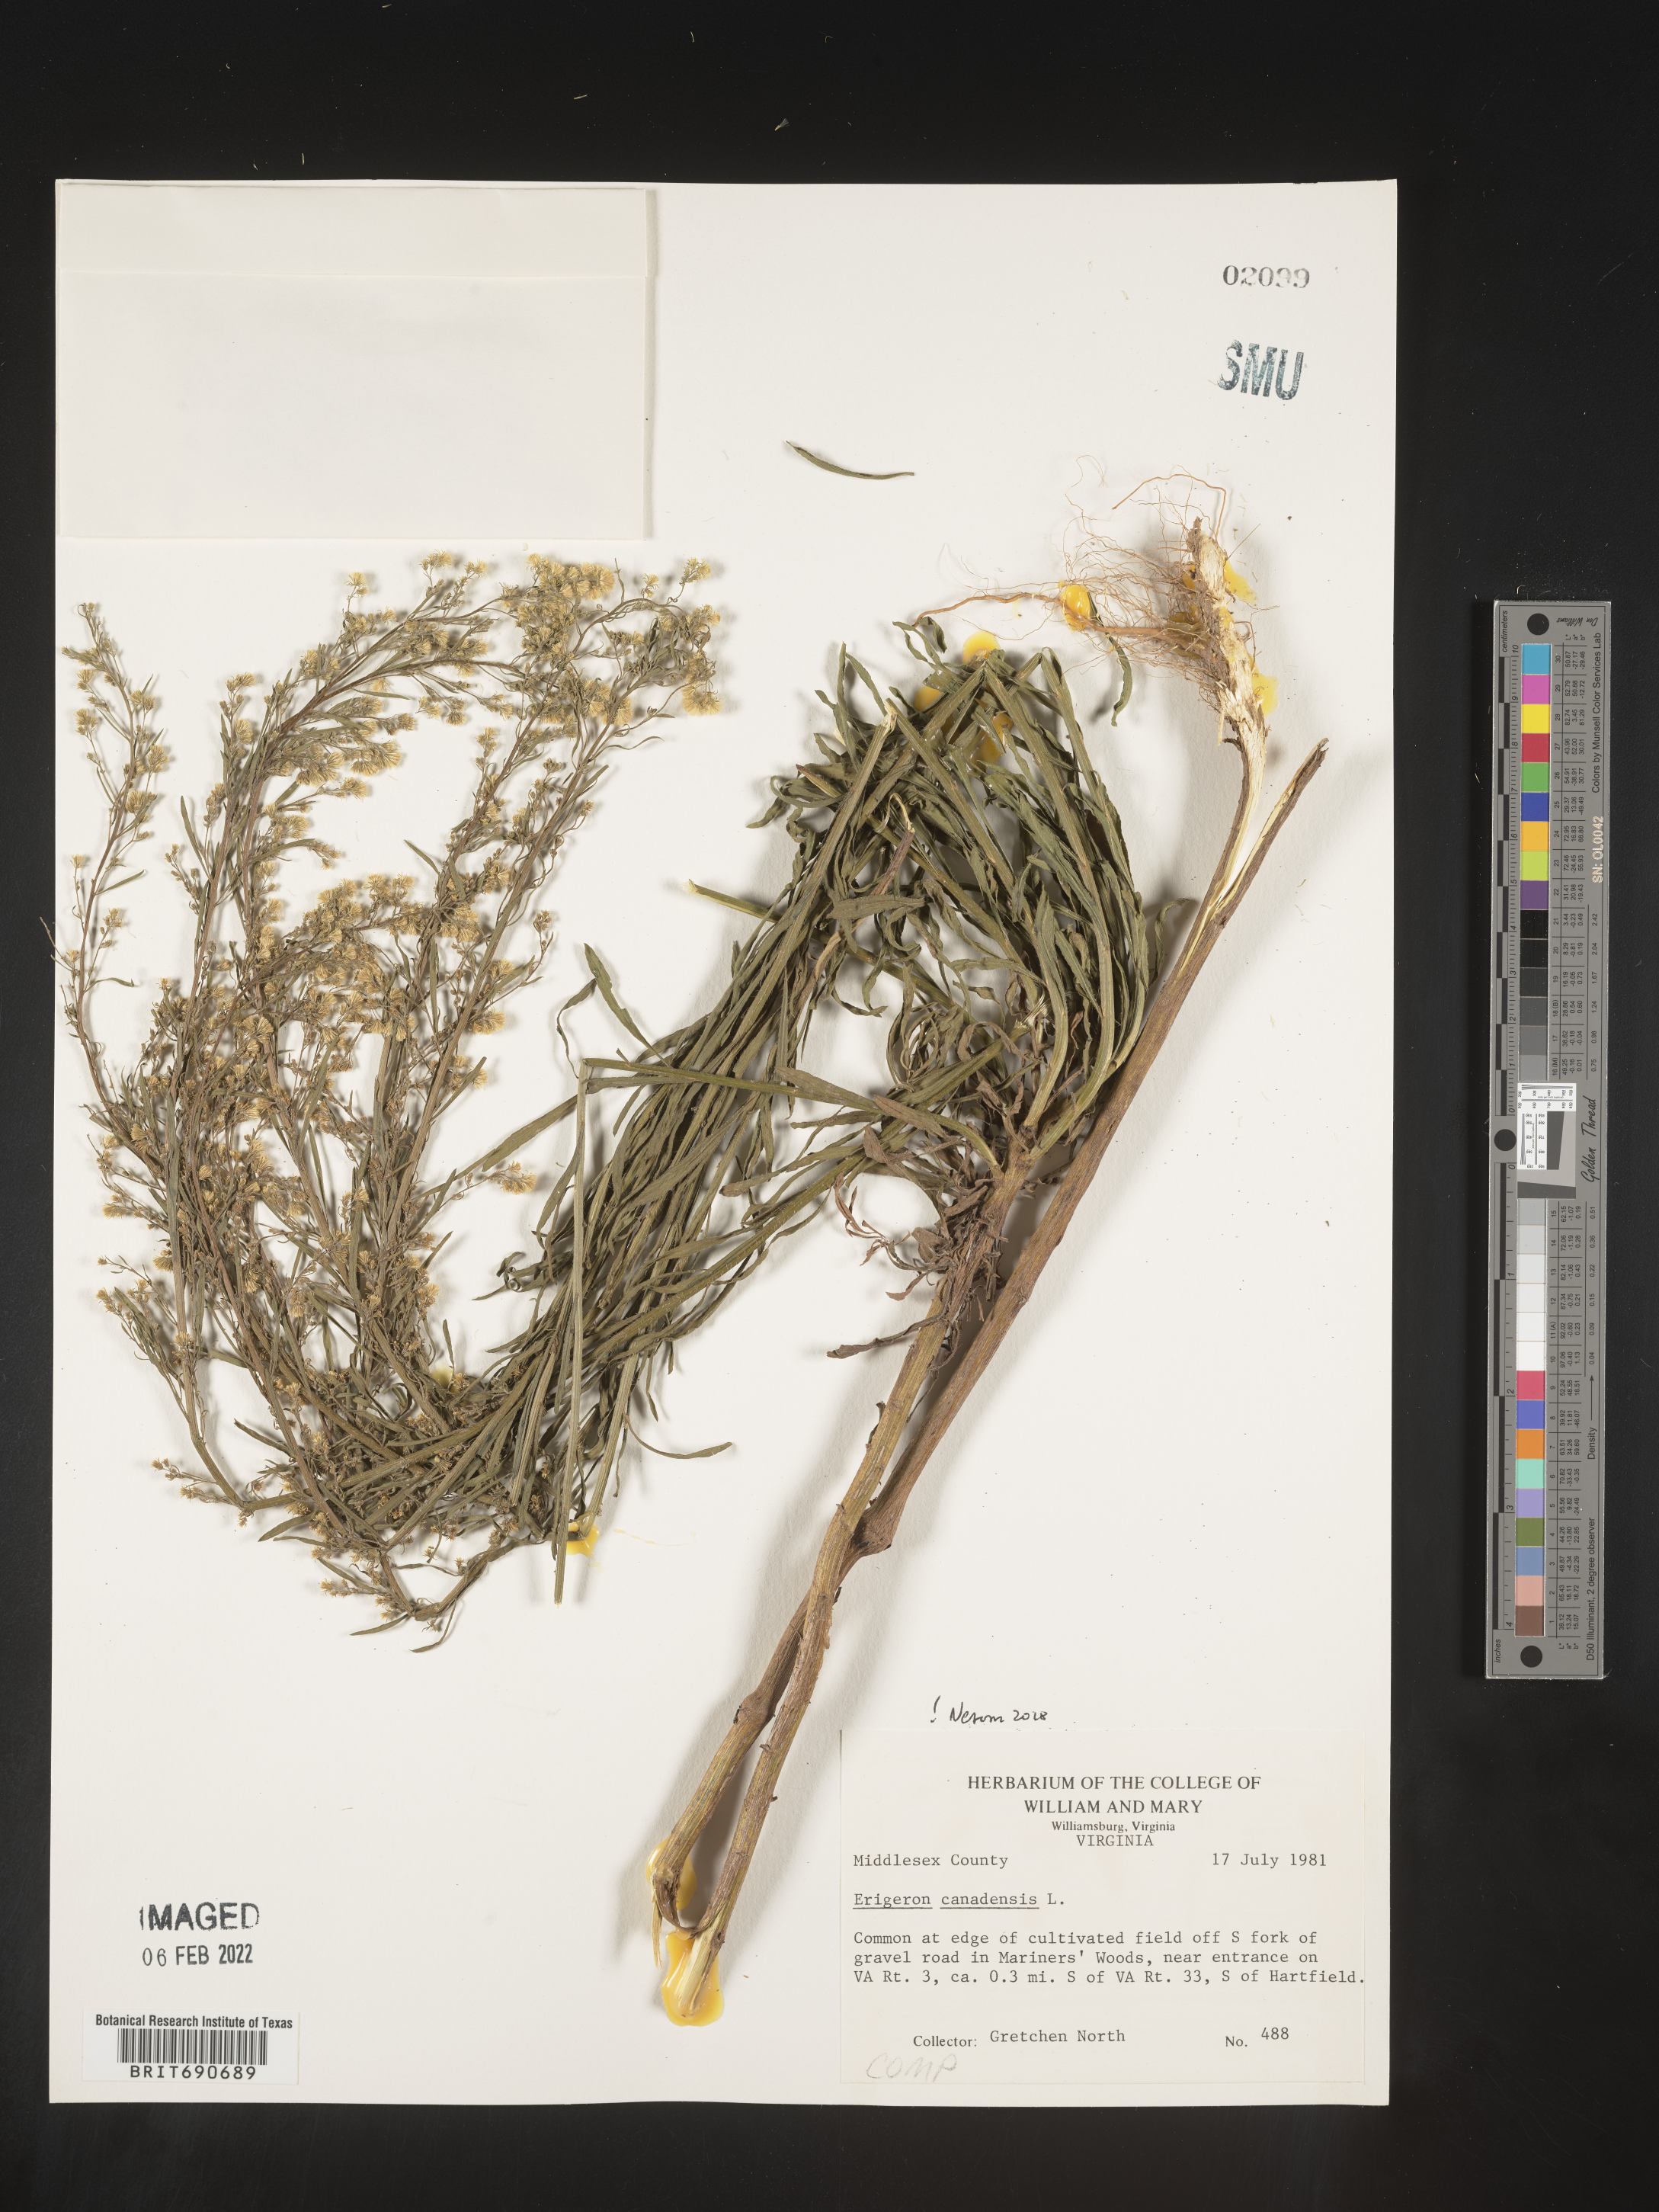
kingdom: Plantae
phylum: Tracheophyta
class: Magnoliopsida
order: Asterales
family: Asteraceae
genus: Erigeron
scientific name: Erigeron canadensis
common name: Canadian fleabane
